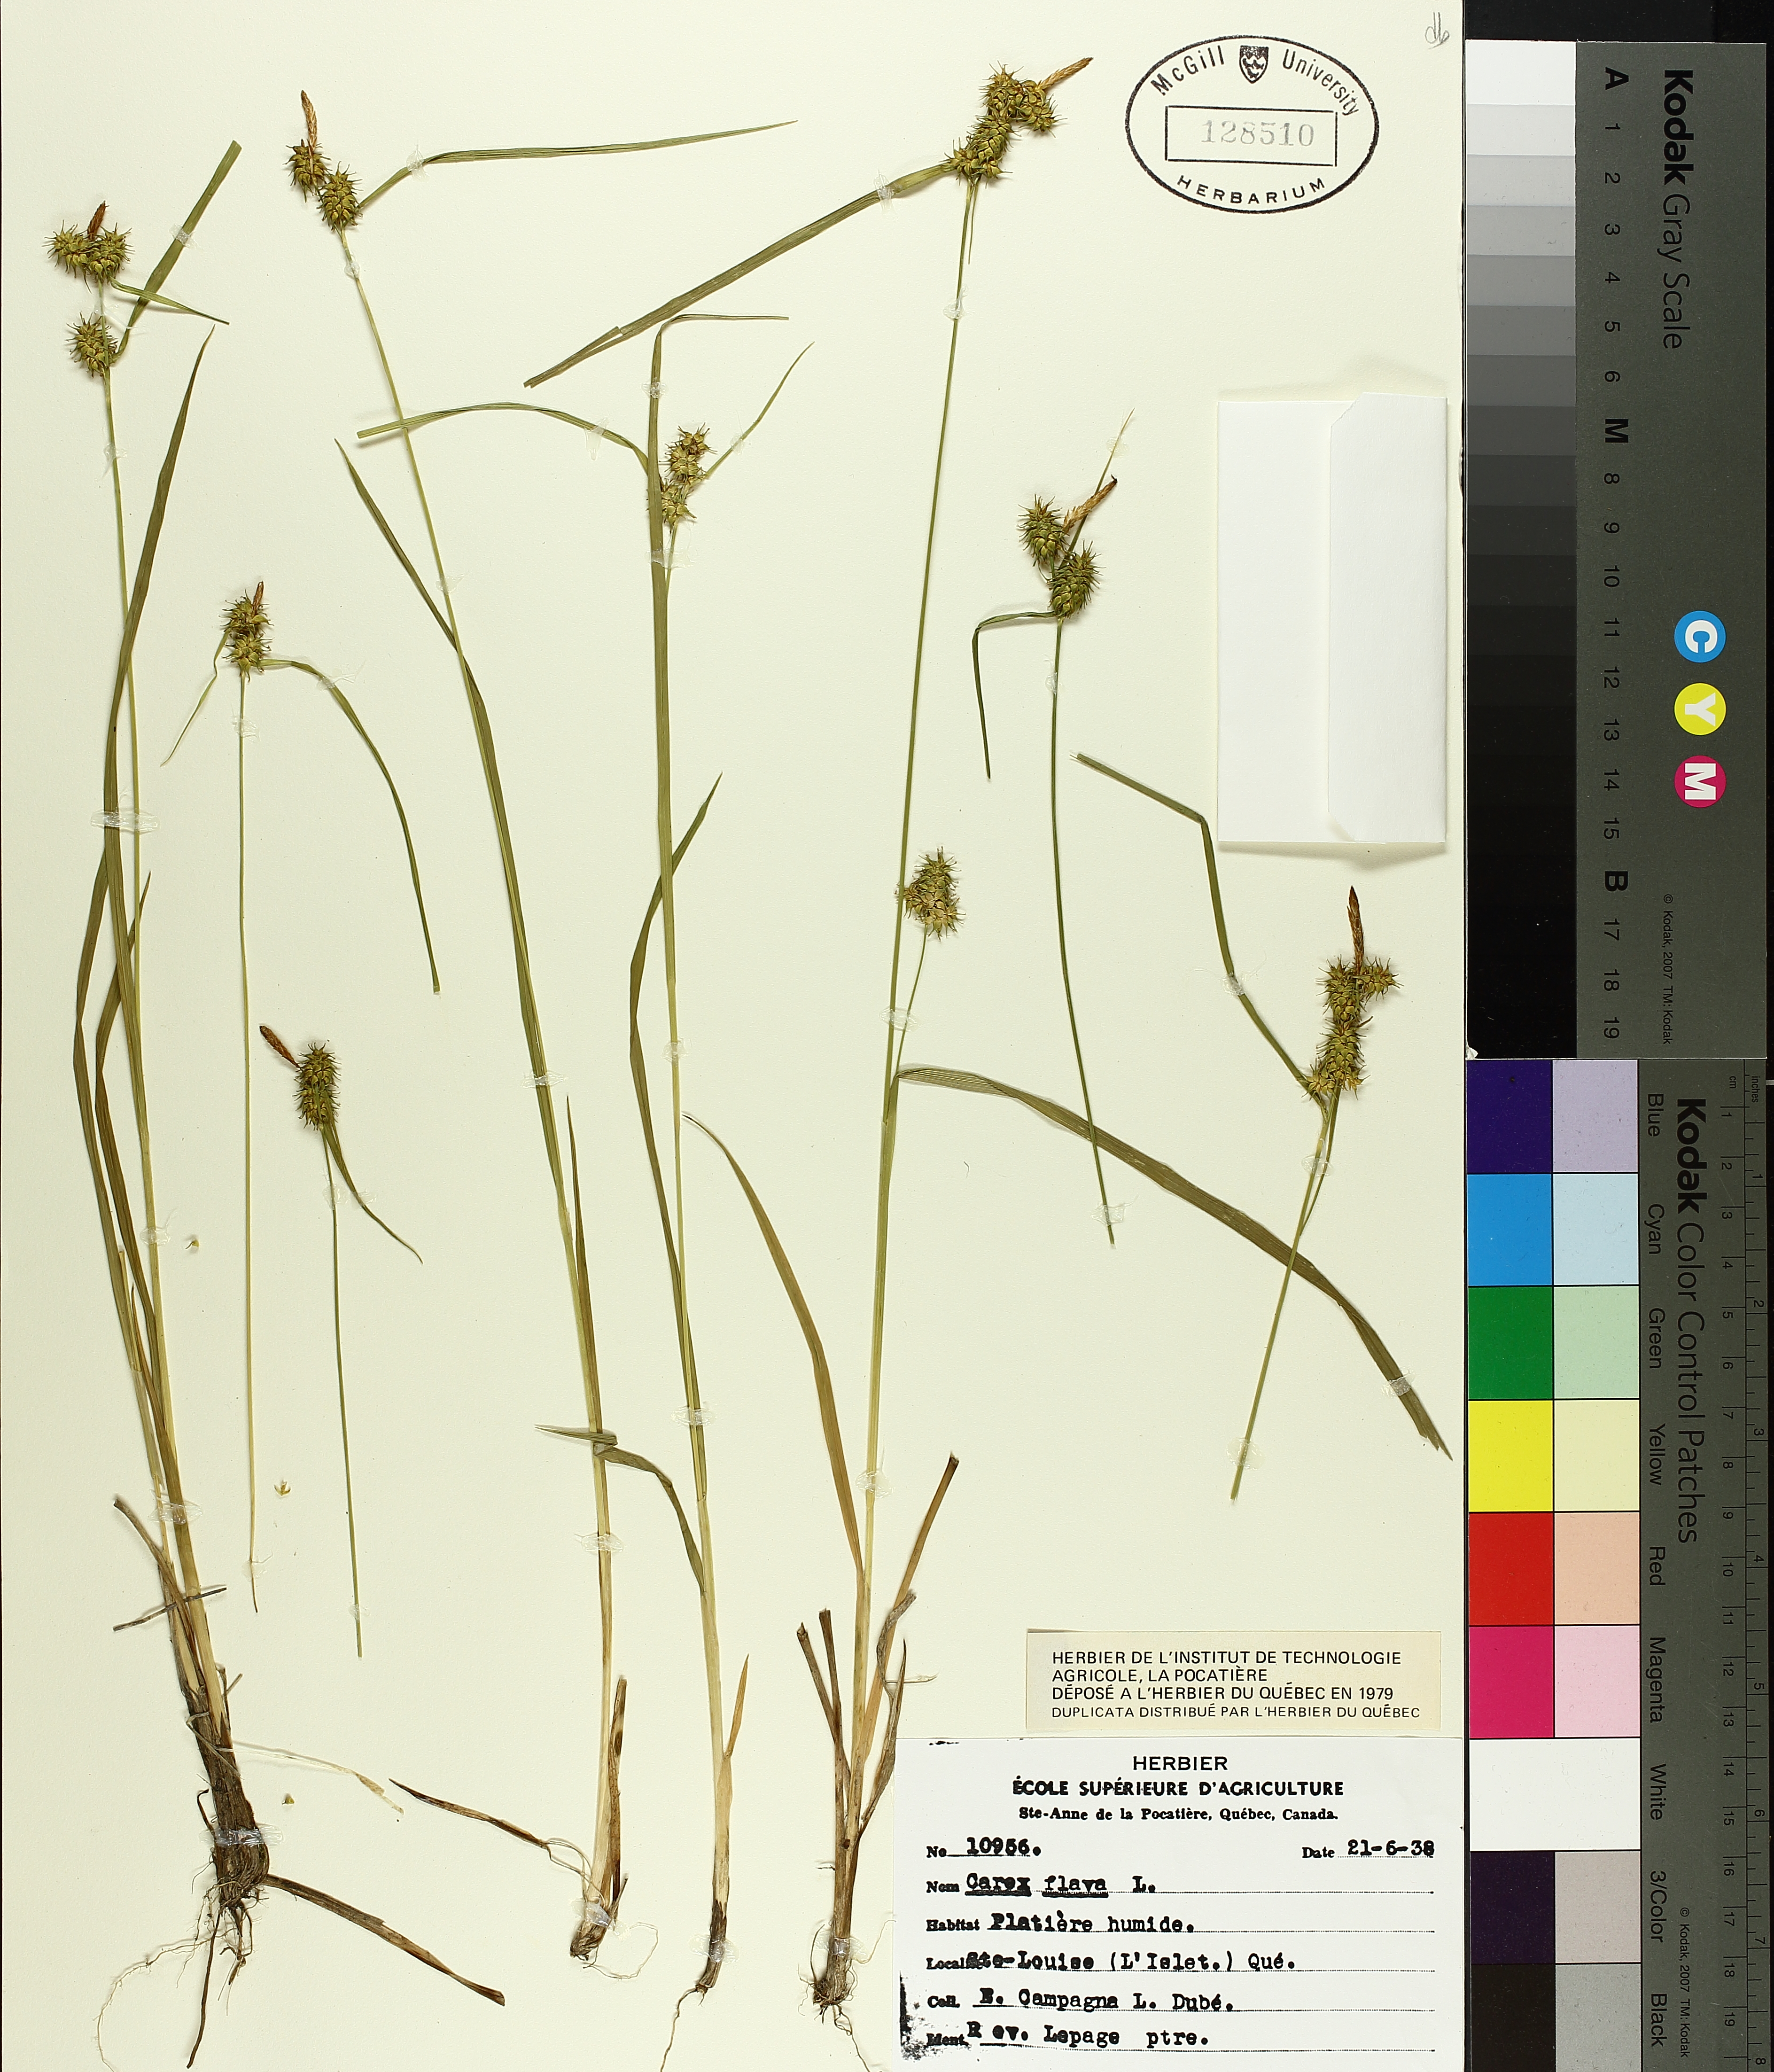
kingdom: Plantae
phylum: Tracheophyta
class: Liliopsida
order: Poales
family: Cyperaceae
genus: Carex
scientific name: Carex flava
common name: Large yellow-sedge
